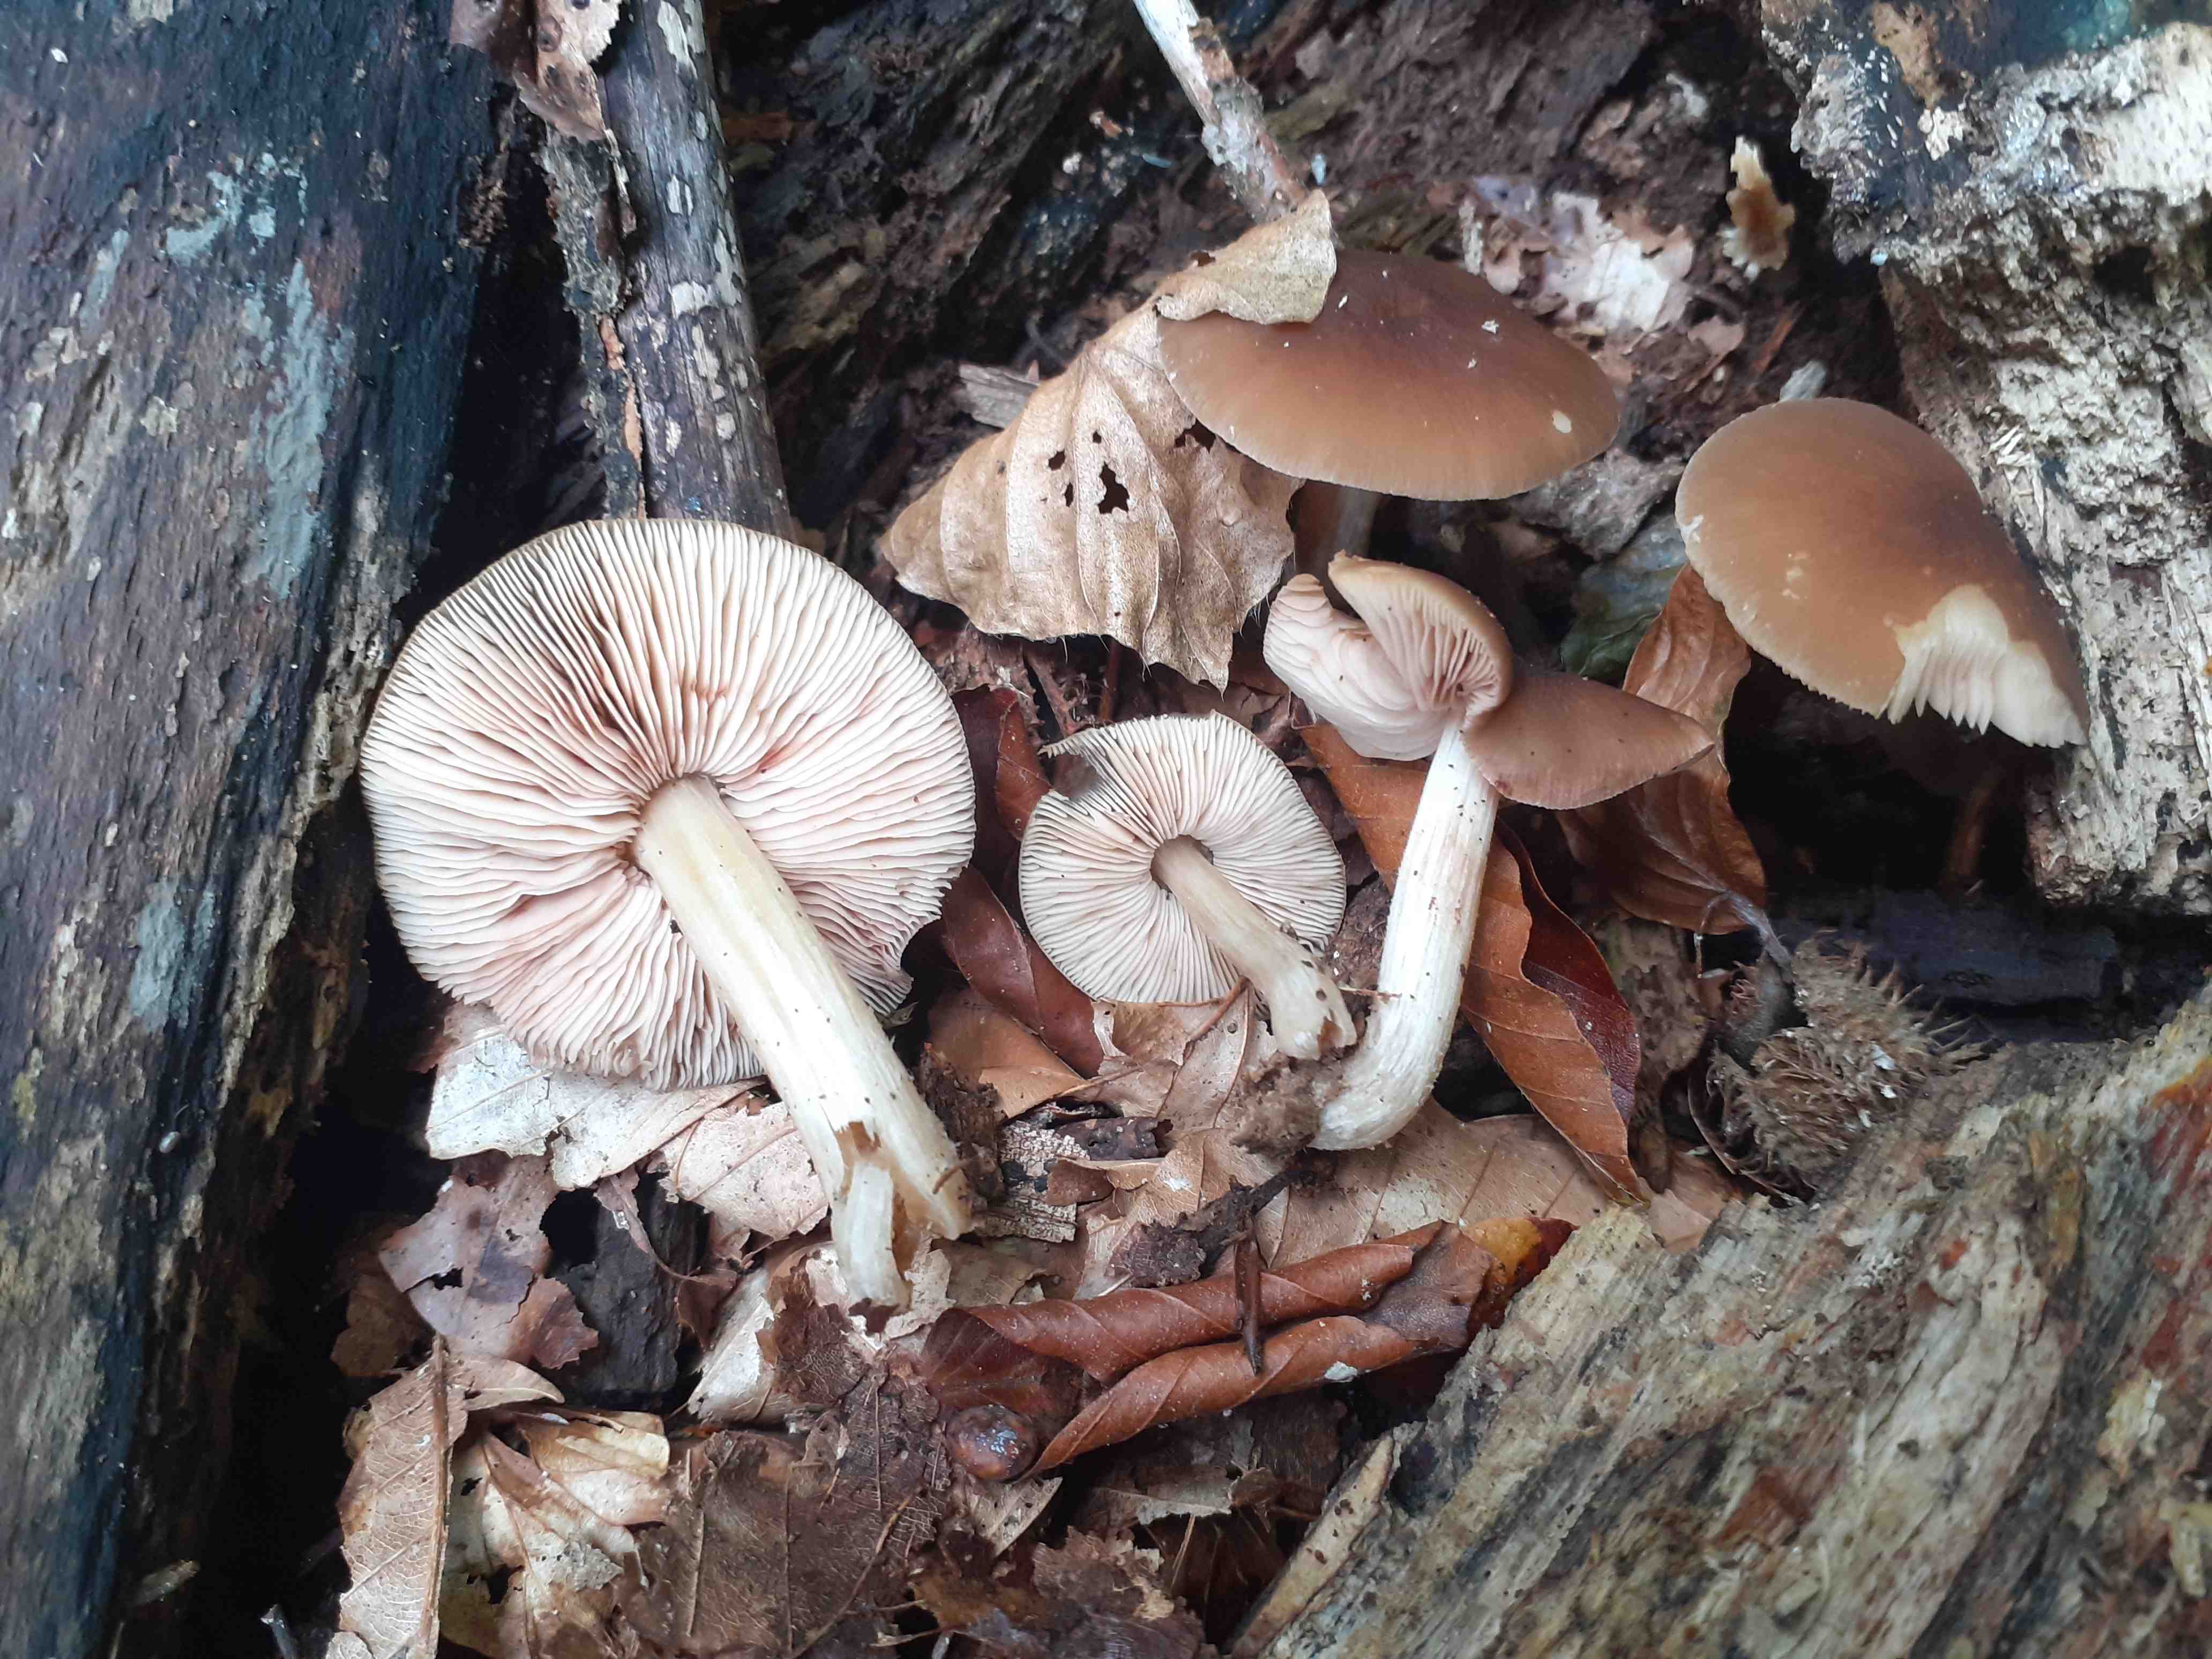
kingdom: Fungi
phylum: Basidiomycota
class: Agaricomycetes
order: Agaricales
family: Pluteaceae
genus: Pluteus
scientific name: Pluteus phlebophorus
